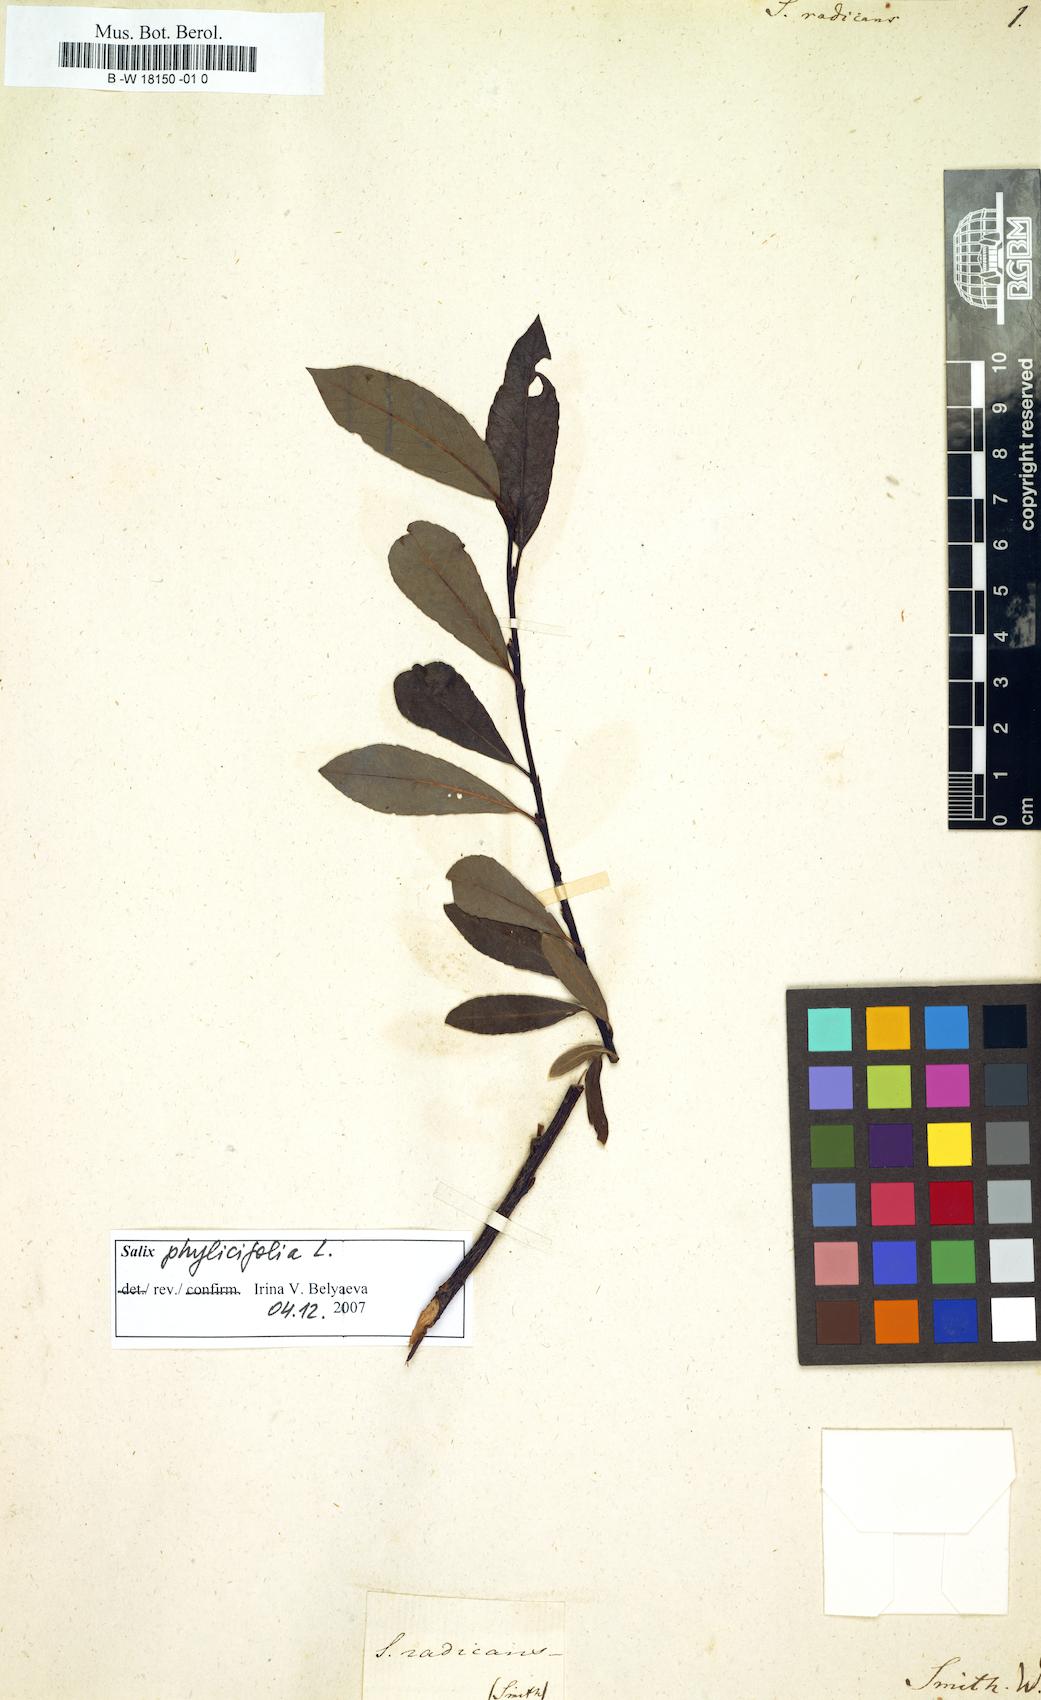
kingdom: Plantae
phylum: Tracheophyta
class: Magnoliopsida
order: Malpighiales
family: Salicaceae
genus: Salix
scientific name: Salix
